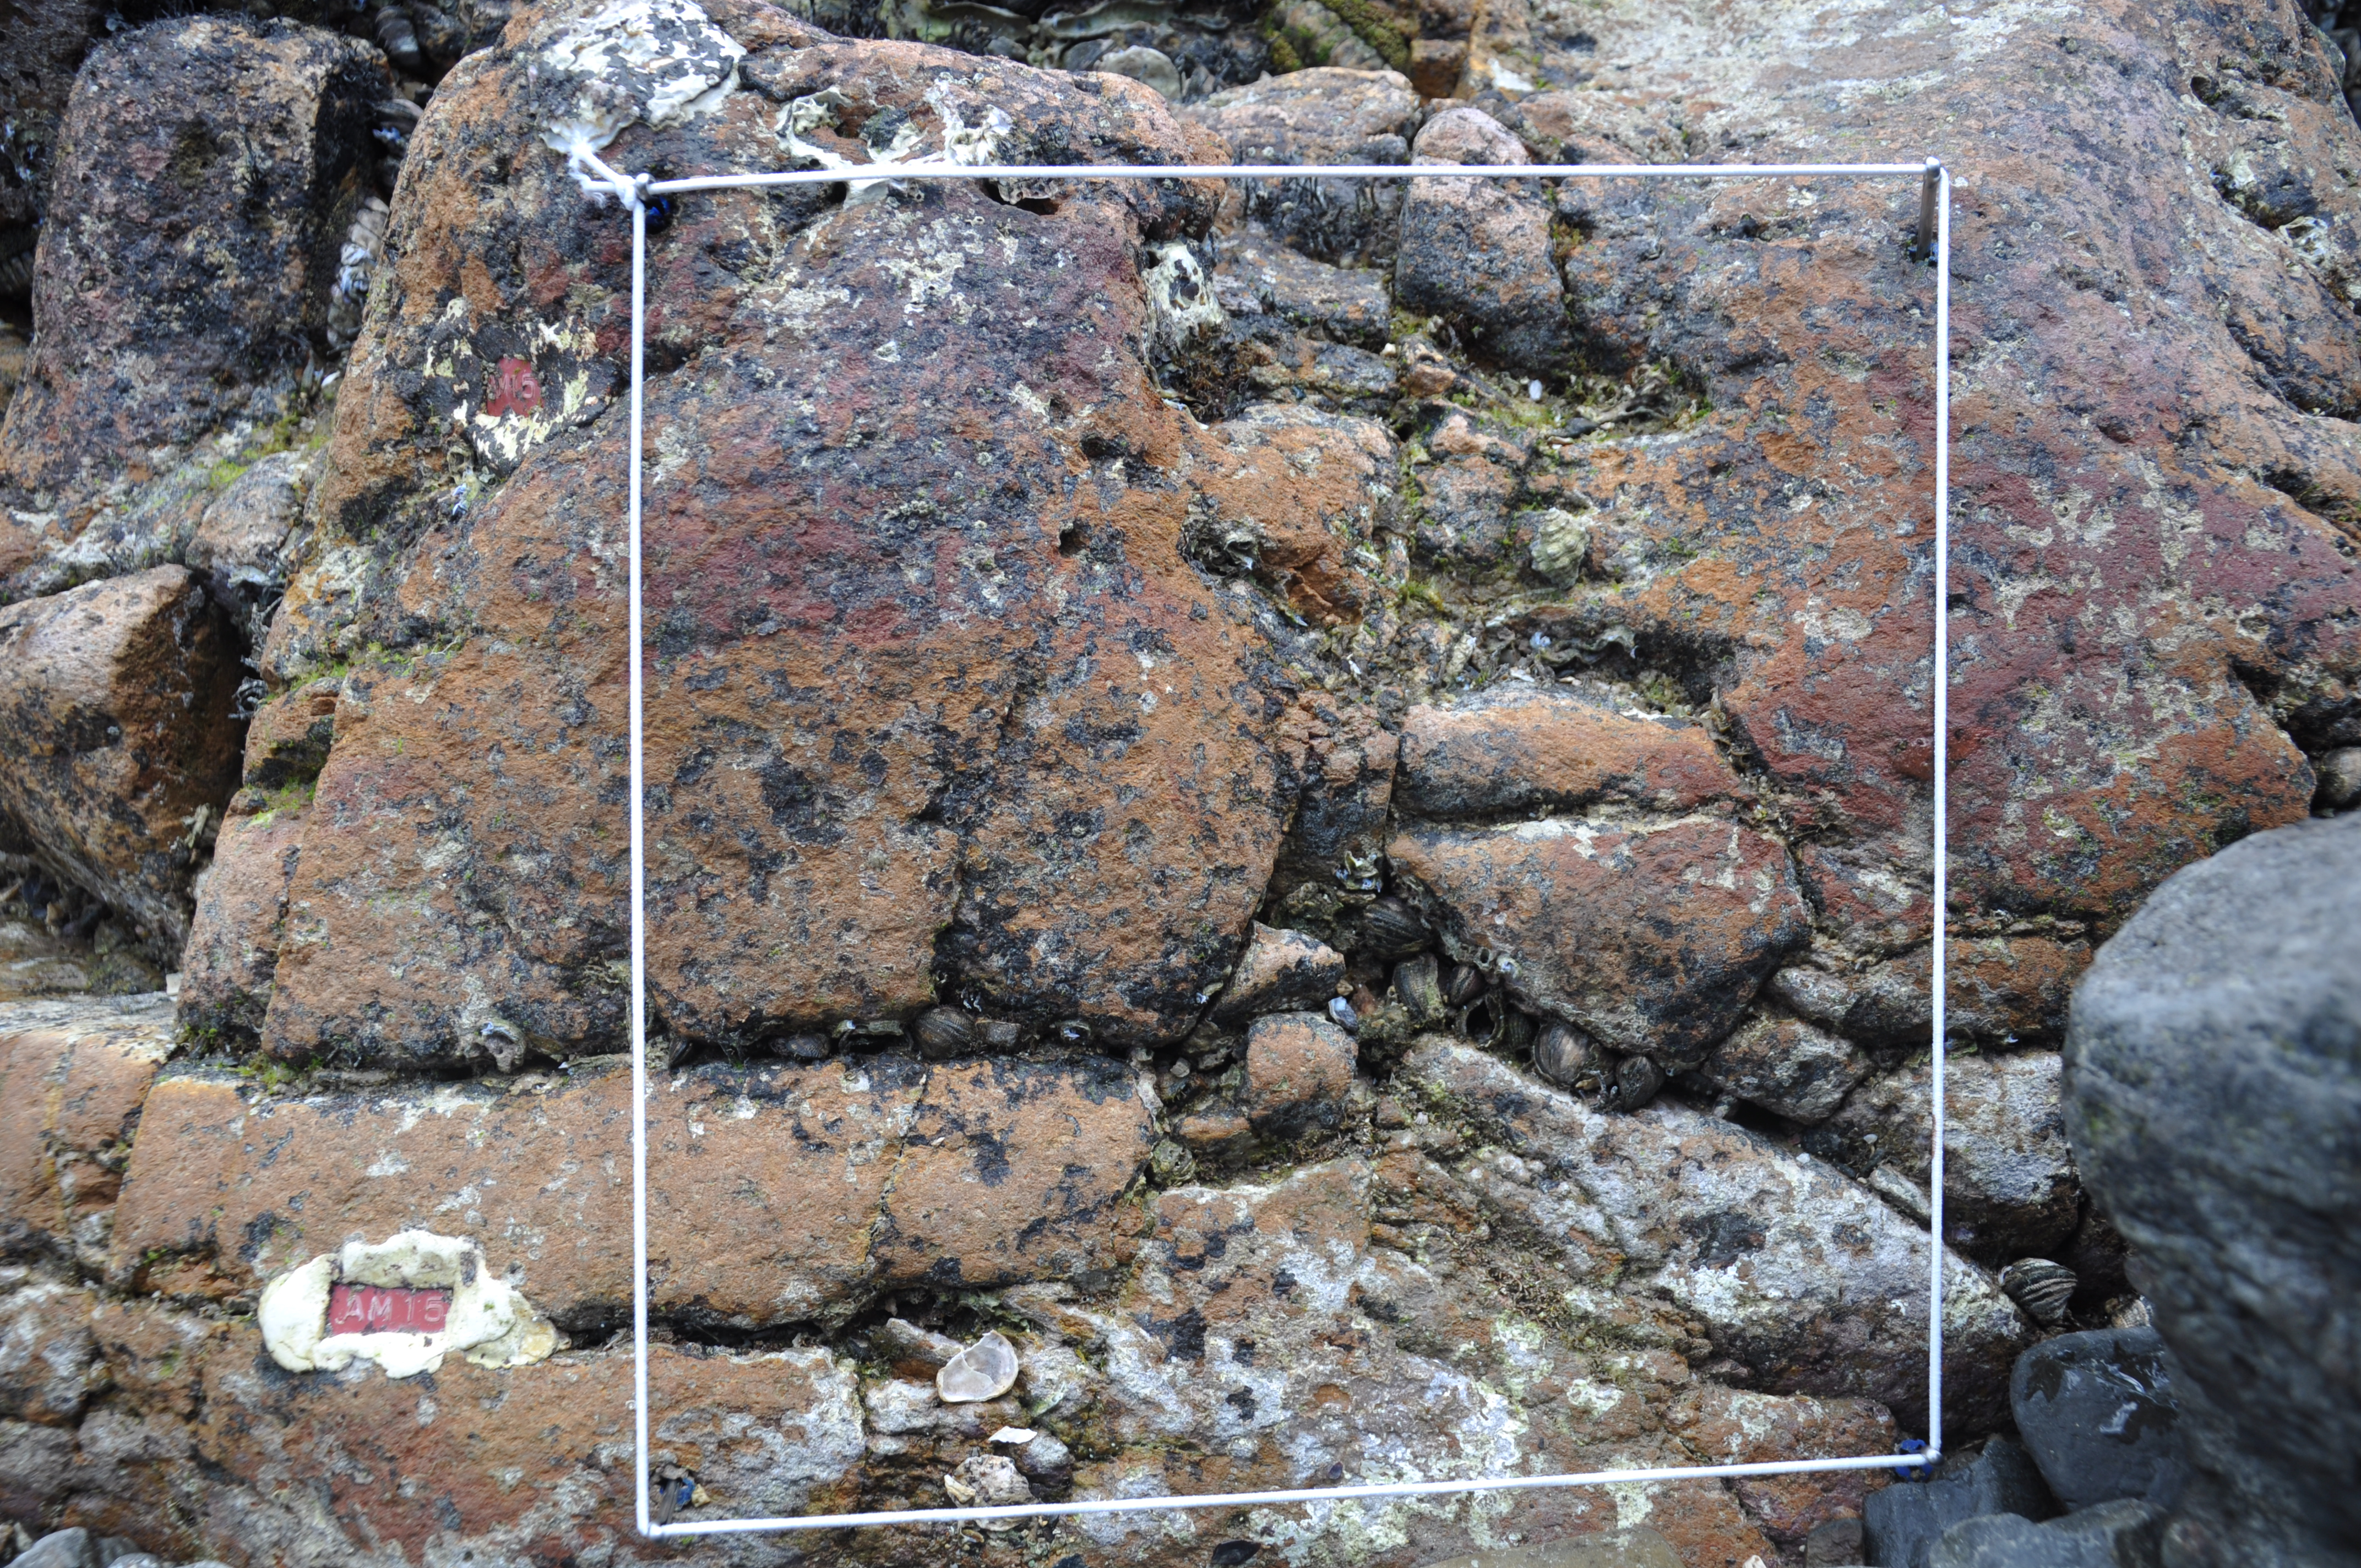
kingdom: Animalia
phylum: Arthropoda
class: Maxillopoda
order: Sessilia
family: Chthamalidae
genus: Chthamalus
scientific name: Chthamalus challengeri
